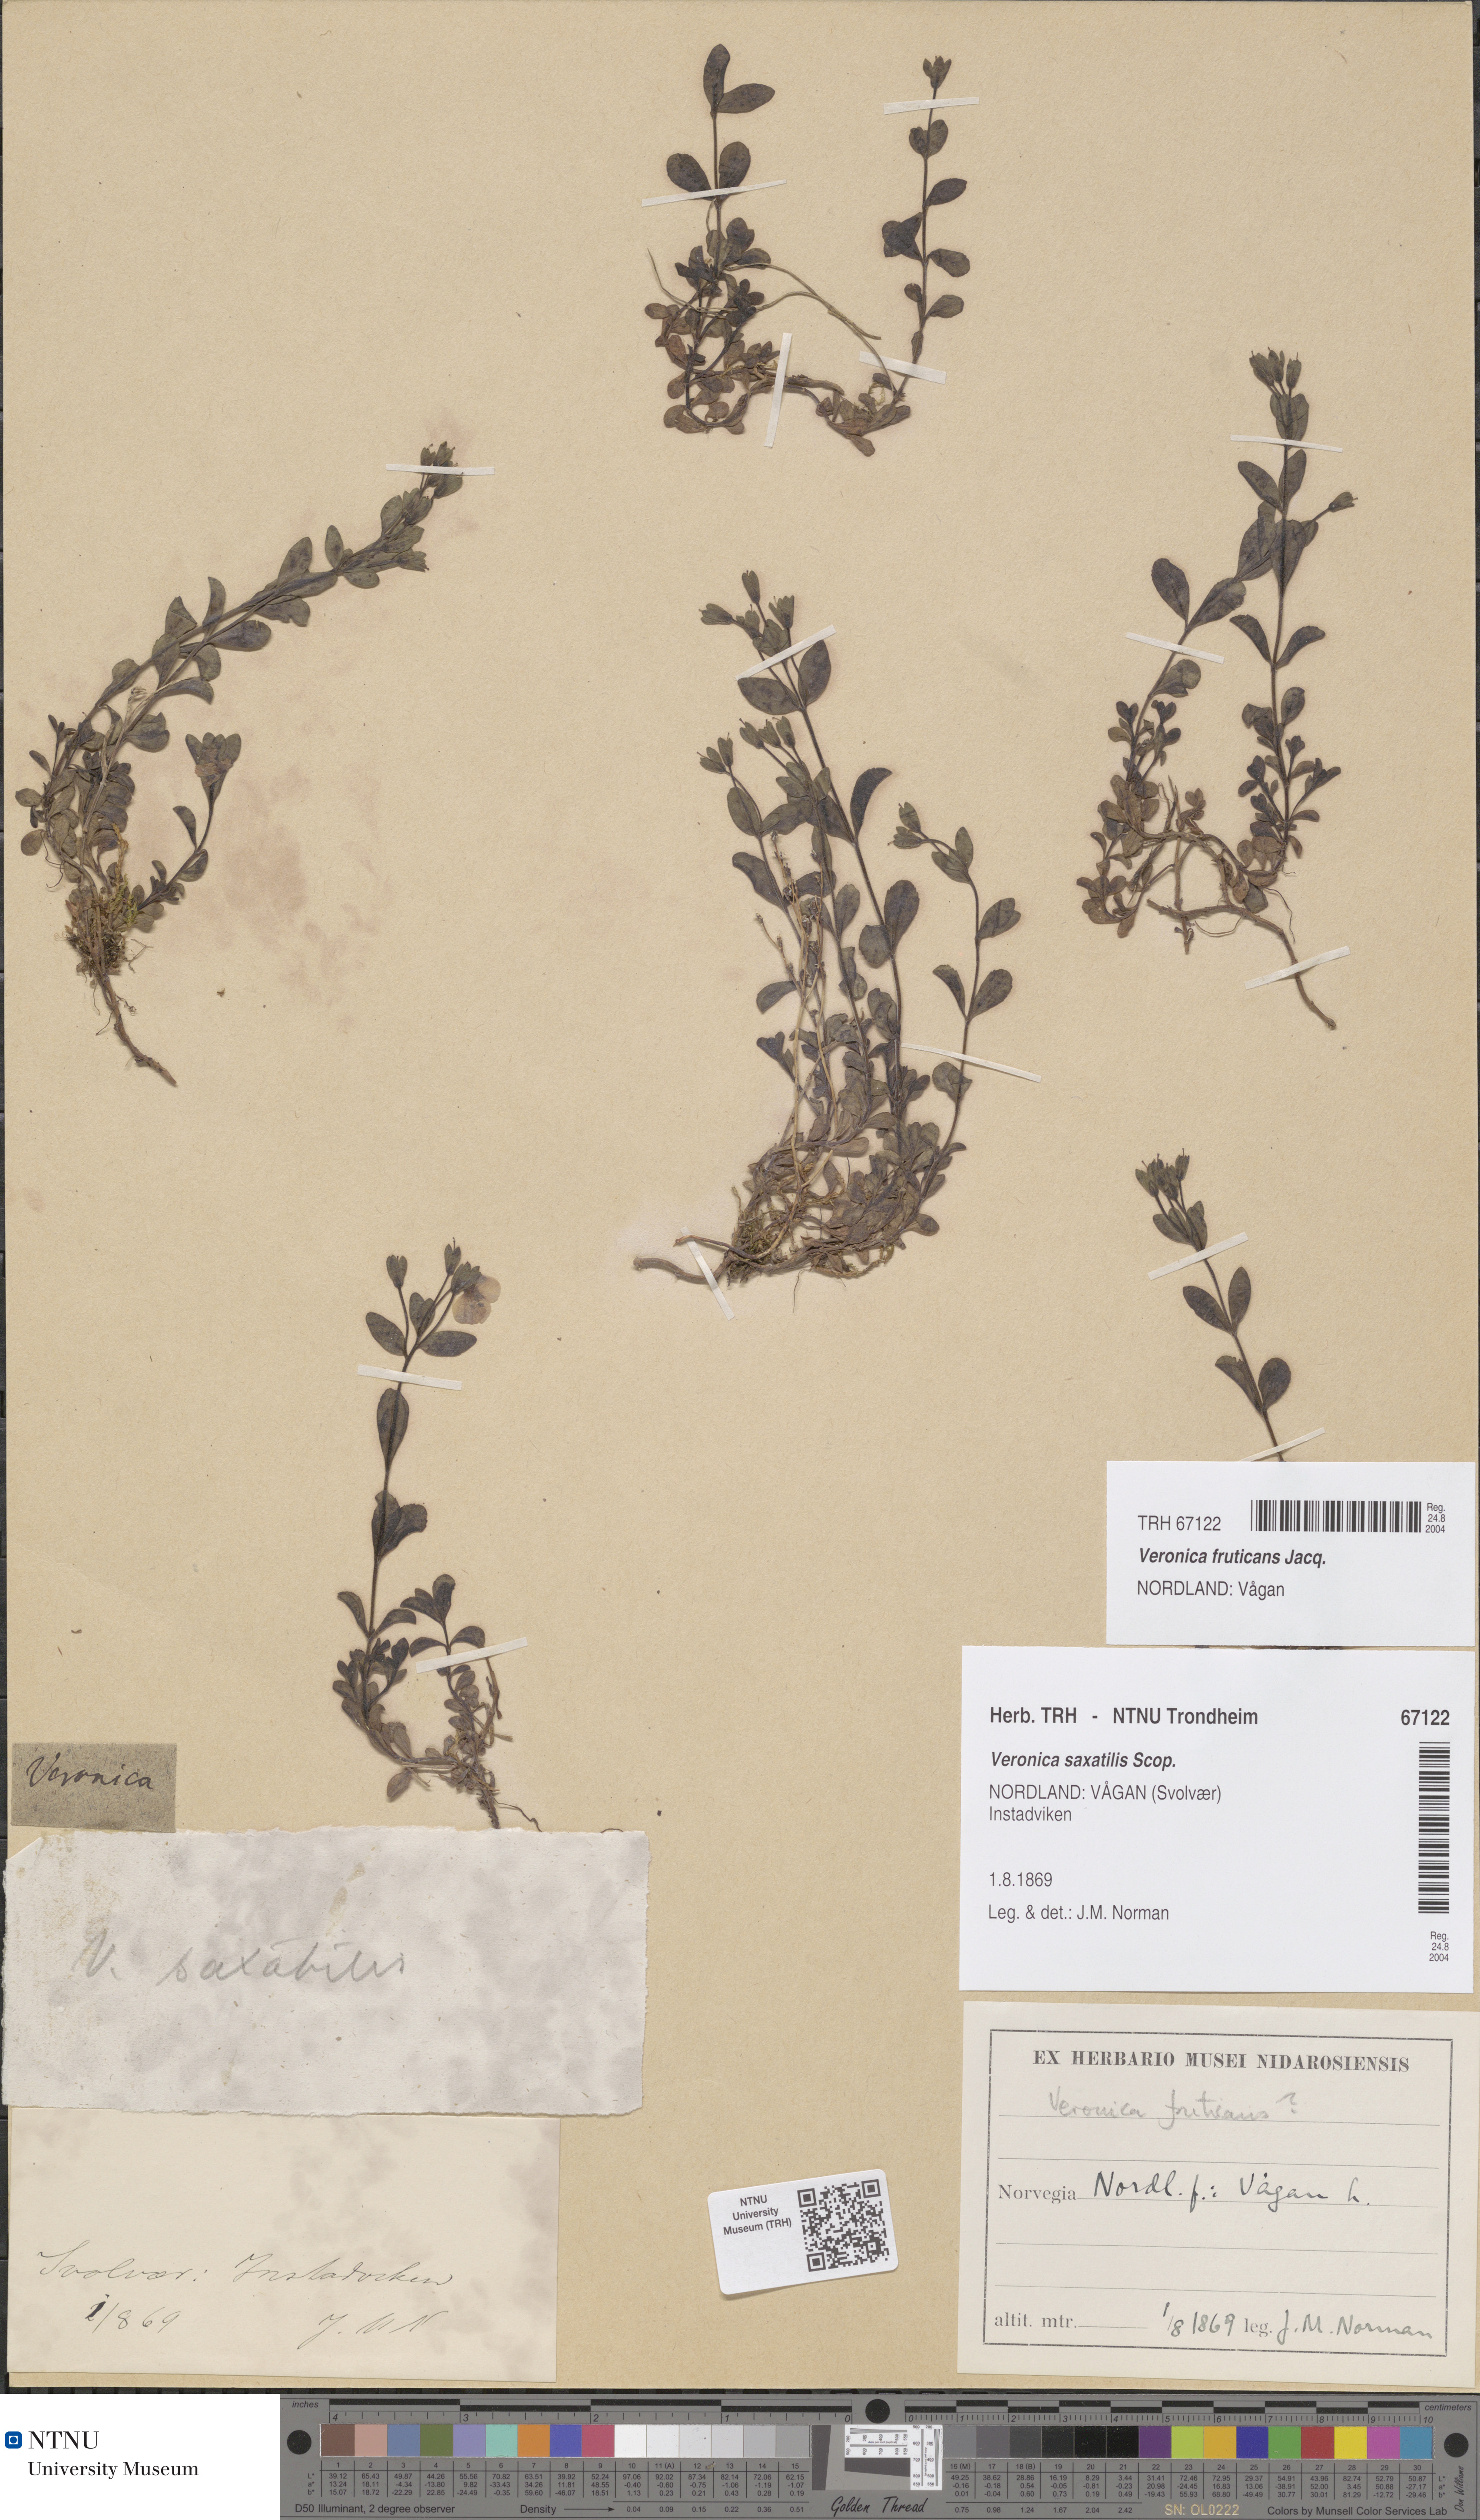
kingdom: Plantae
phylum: Tracheophyta
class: Magnoliopsida
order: Lamiales
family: Plantaginaceae
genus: Veronica
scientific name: Veronica fruticans
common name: Rock speedwell
